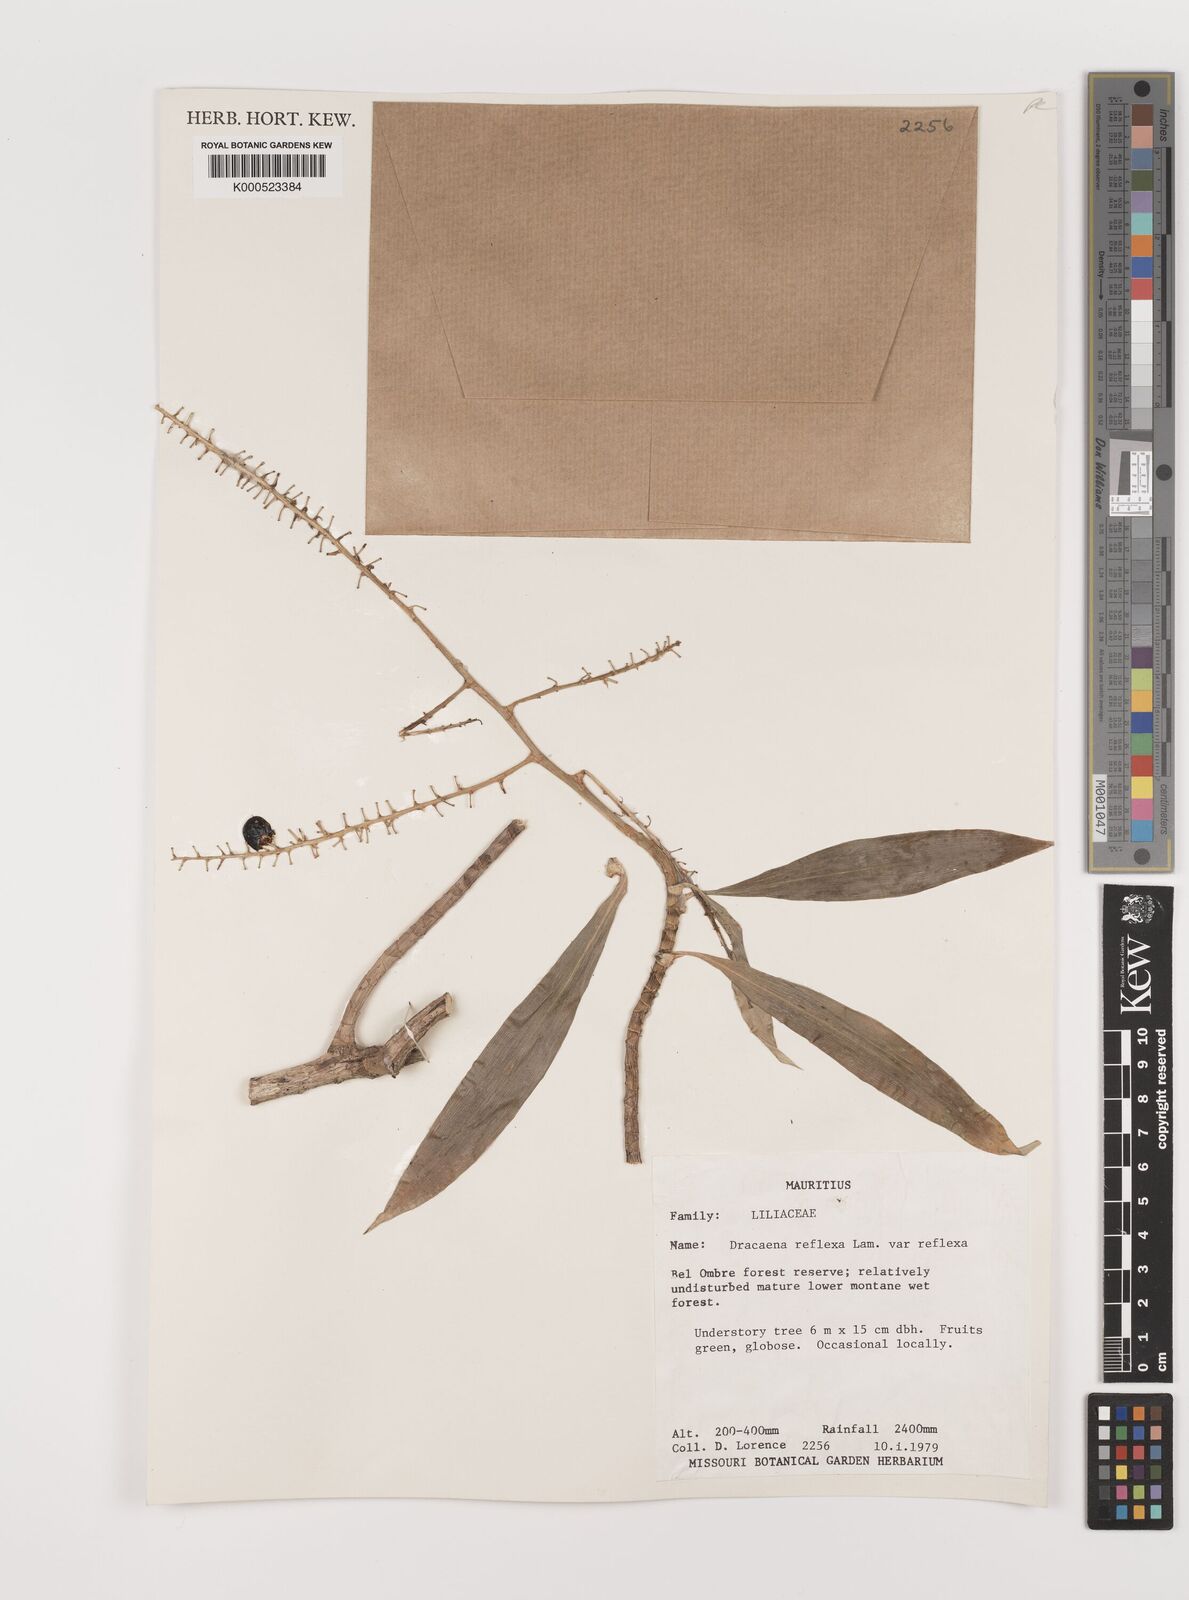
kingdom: Plantae
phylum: Tracheophyta
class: Liliopsida
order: Asparagales
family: Asparagaceae
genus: Dracaena
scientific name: Dracaena reflexa
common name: Song-of-india
